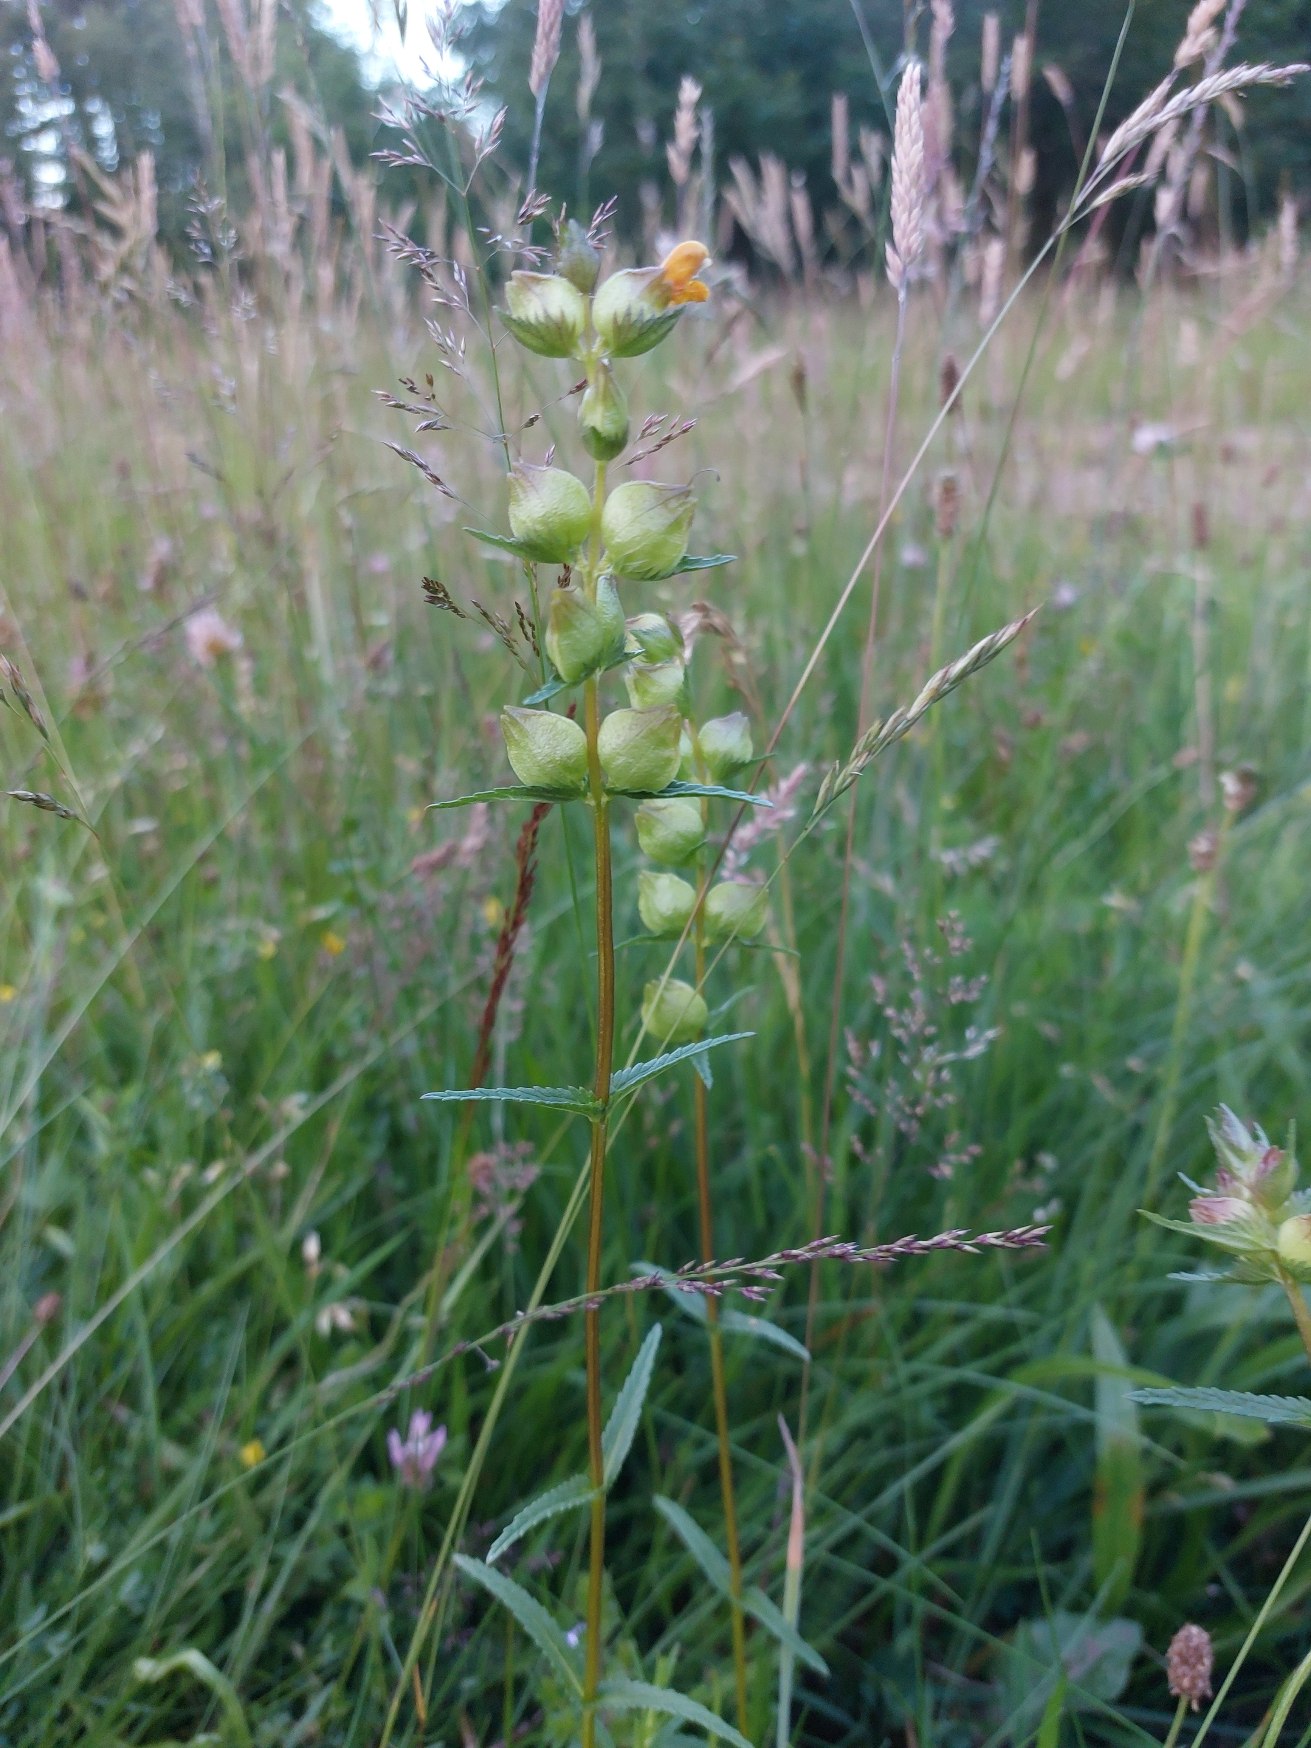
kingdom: Plantae
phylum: Tracheophyta
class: Magnoliopsida
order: Lamiales
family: Orobanchaceae
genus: Rhinanthus
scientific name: Rhinanthus minor
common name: Liden skjaller
